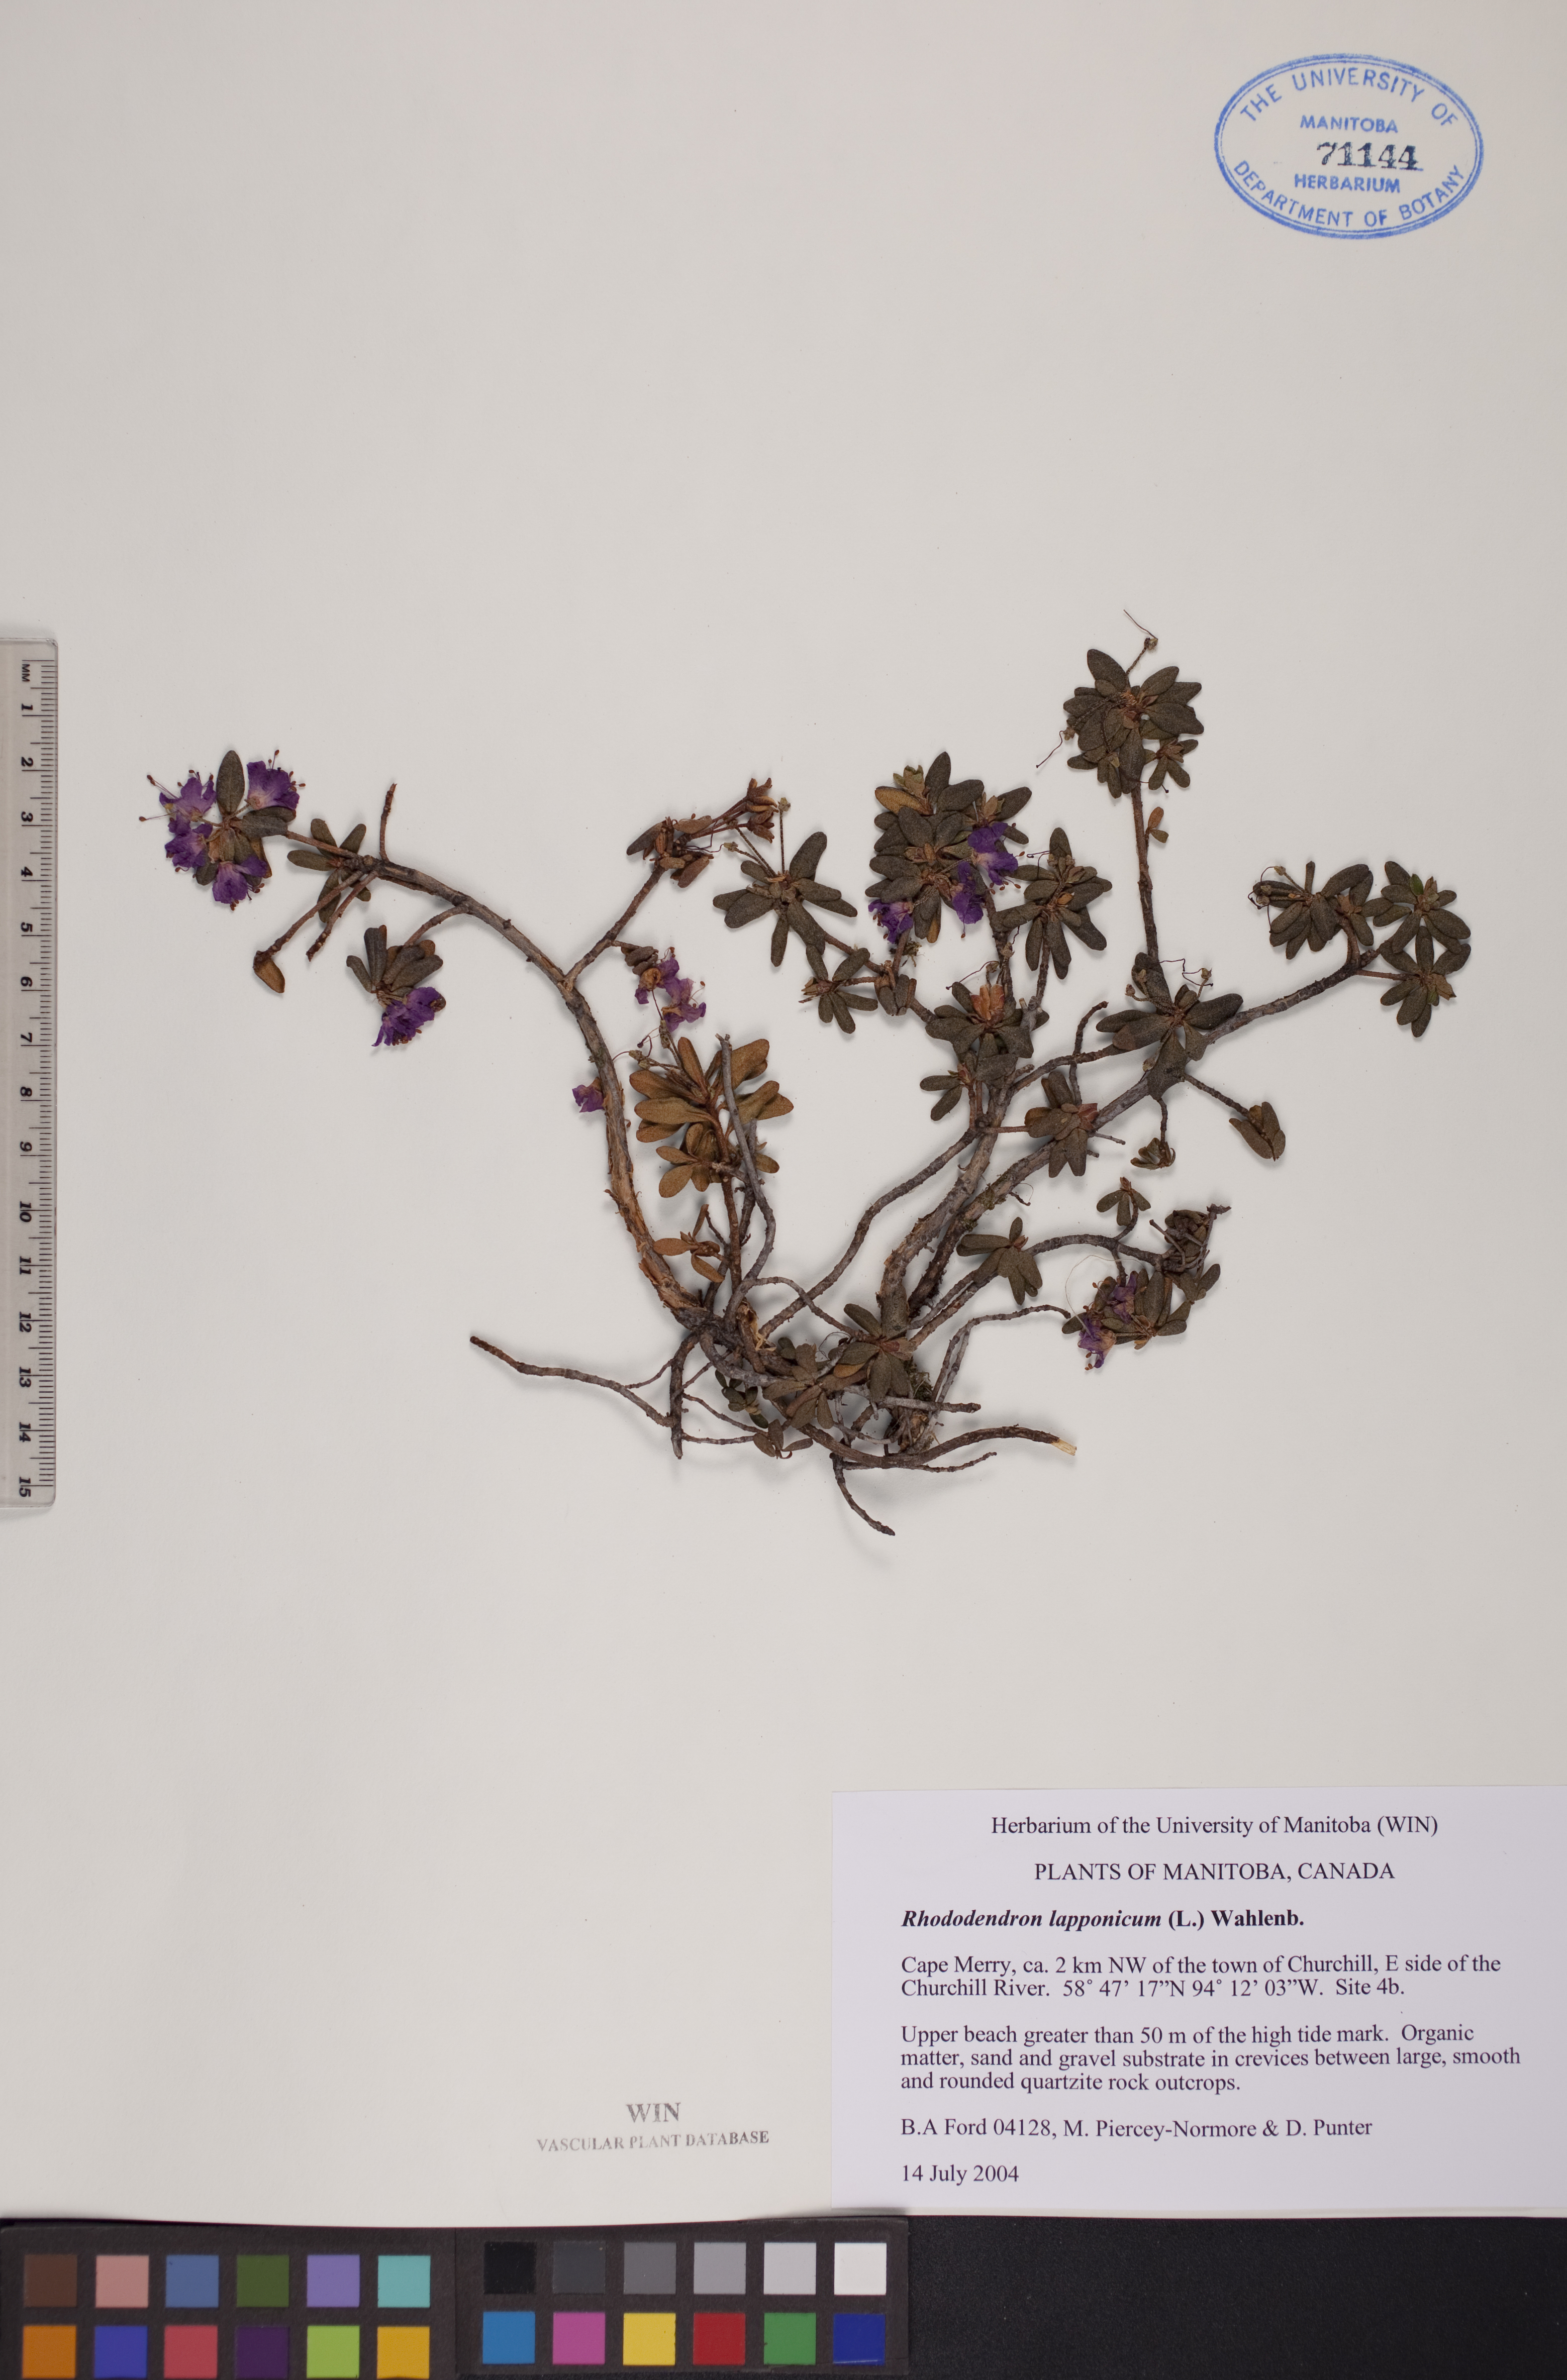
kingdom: Plantae
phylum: Tracheophyta
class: Magnoliopsida
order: Ericales
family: Ericaceae
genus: Rhododendron
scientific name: Rhododendron lapponicum
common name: Lapland rhododendron
